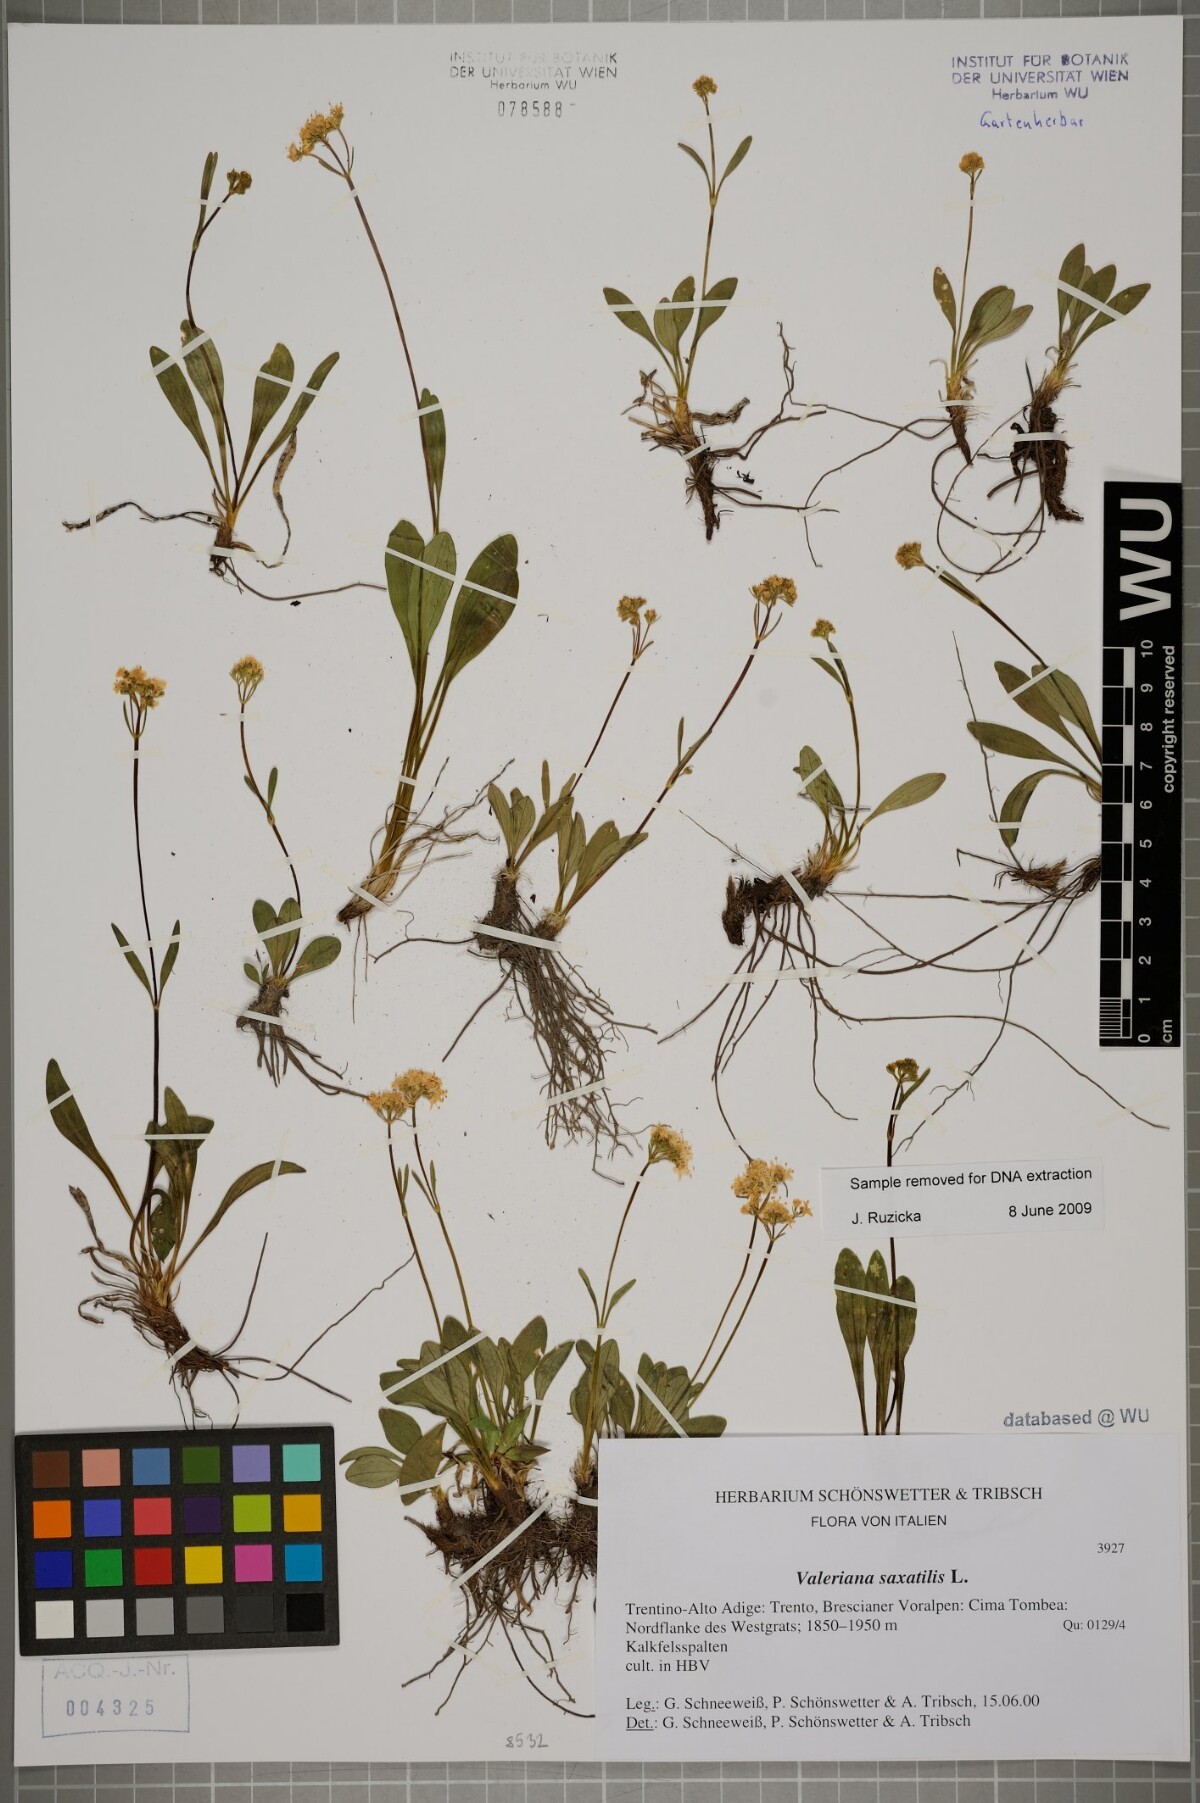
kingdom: Plantae
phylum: Tracheophyta
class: Magnoliopsida
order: Dipsacales
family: Caprifoliaceae
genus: Valeriana
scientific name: Valeriana saxatilis
